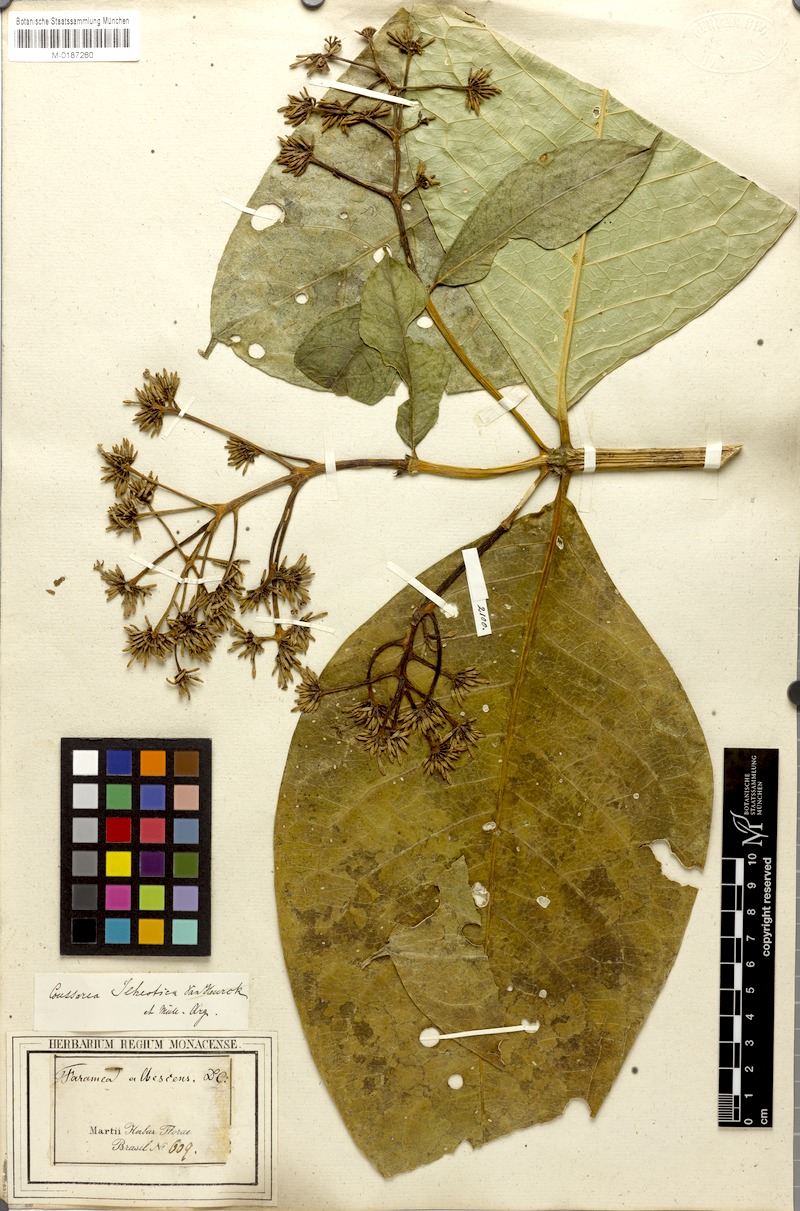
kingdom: Plantae
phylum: Tracheophyta
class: Magnoliopsida
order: Gentianales
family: Rubiaceae
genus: Coussarea
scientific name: Coussarea ilheotica
